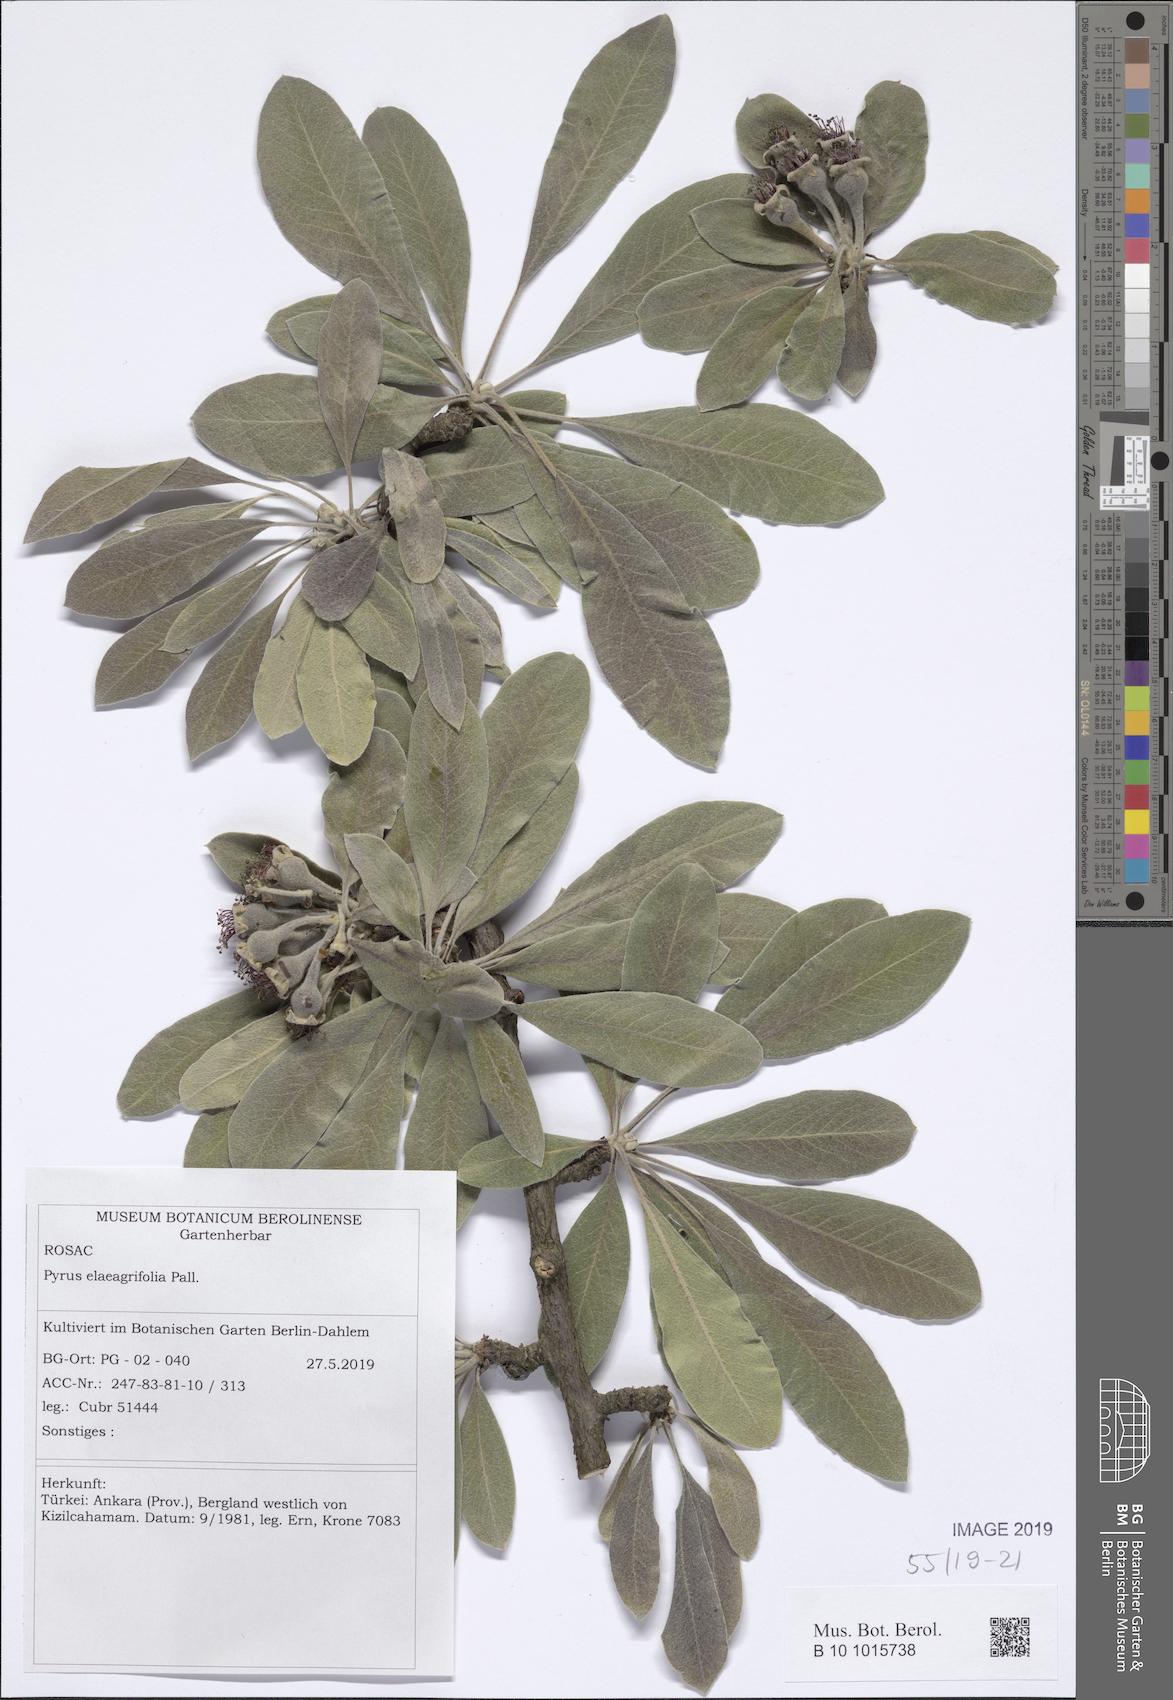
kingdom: Plantae
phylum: Tracheophyta
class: Magnoliopsida
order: Rosales
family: Rosaceae
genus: Pyrus
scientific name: Pyrus elaeagrifolia
